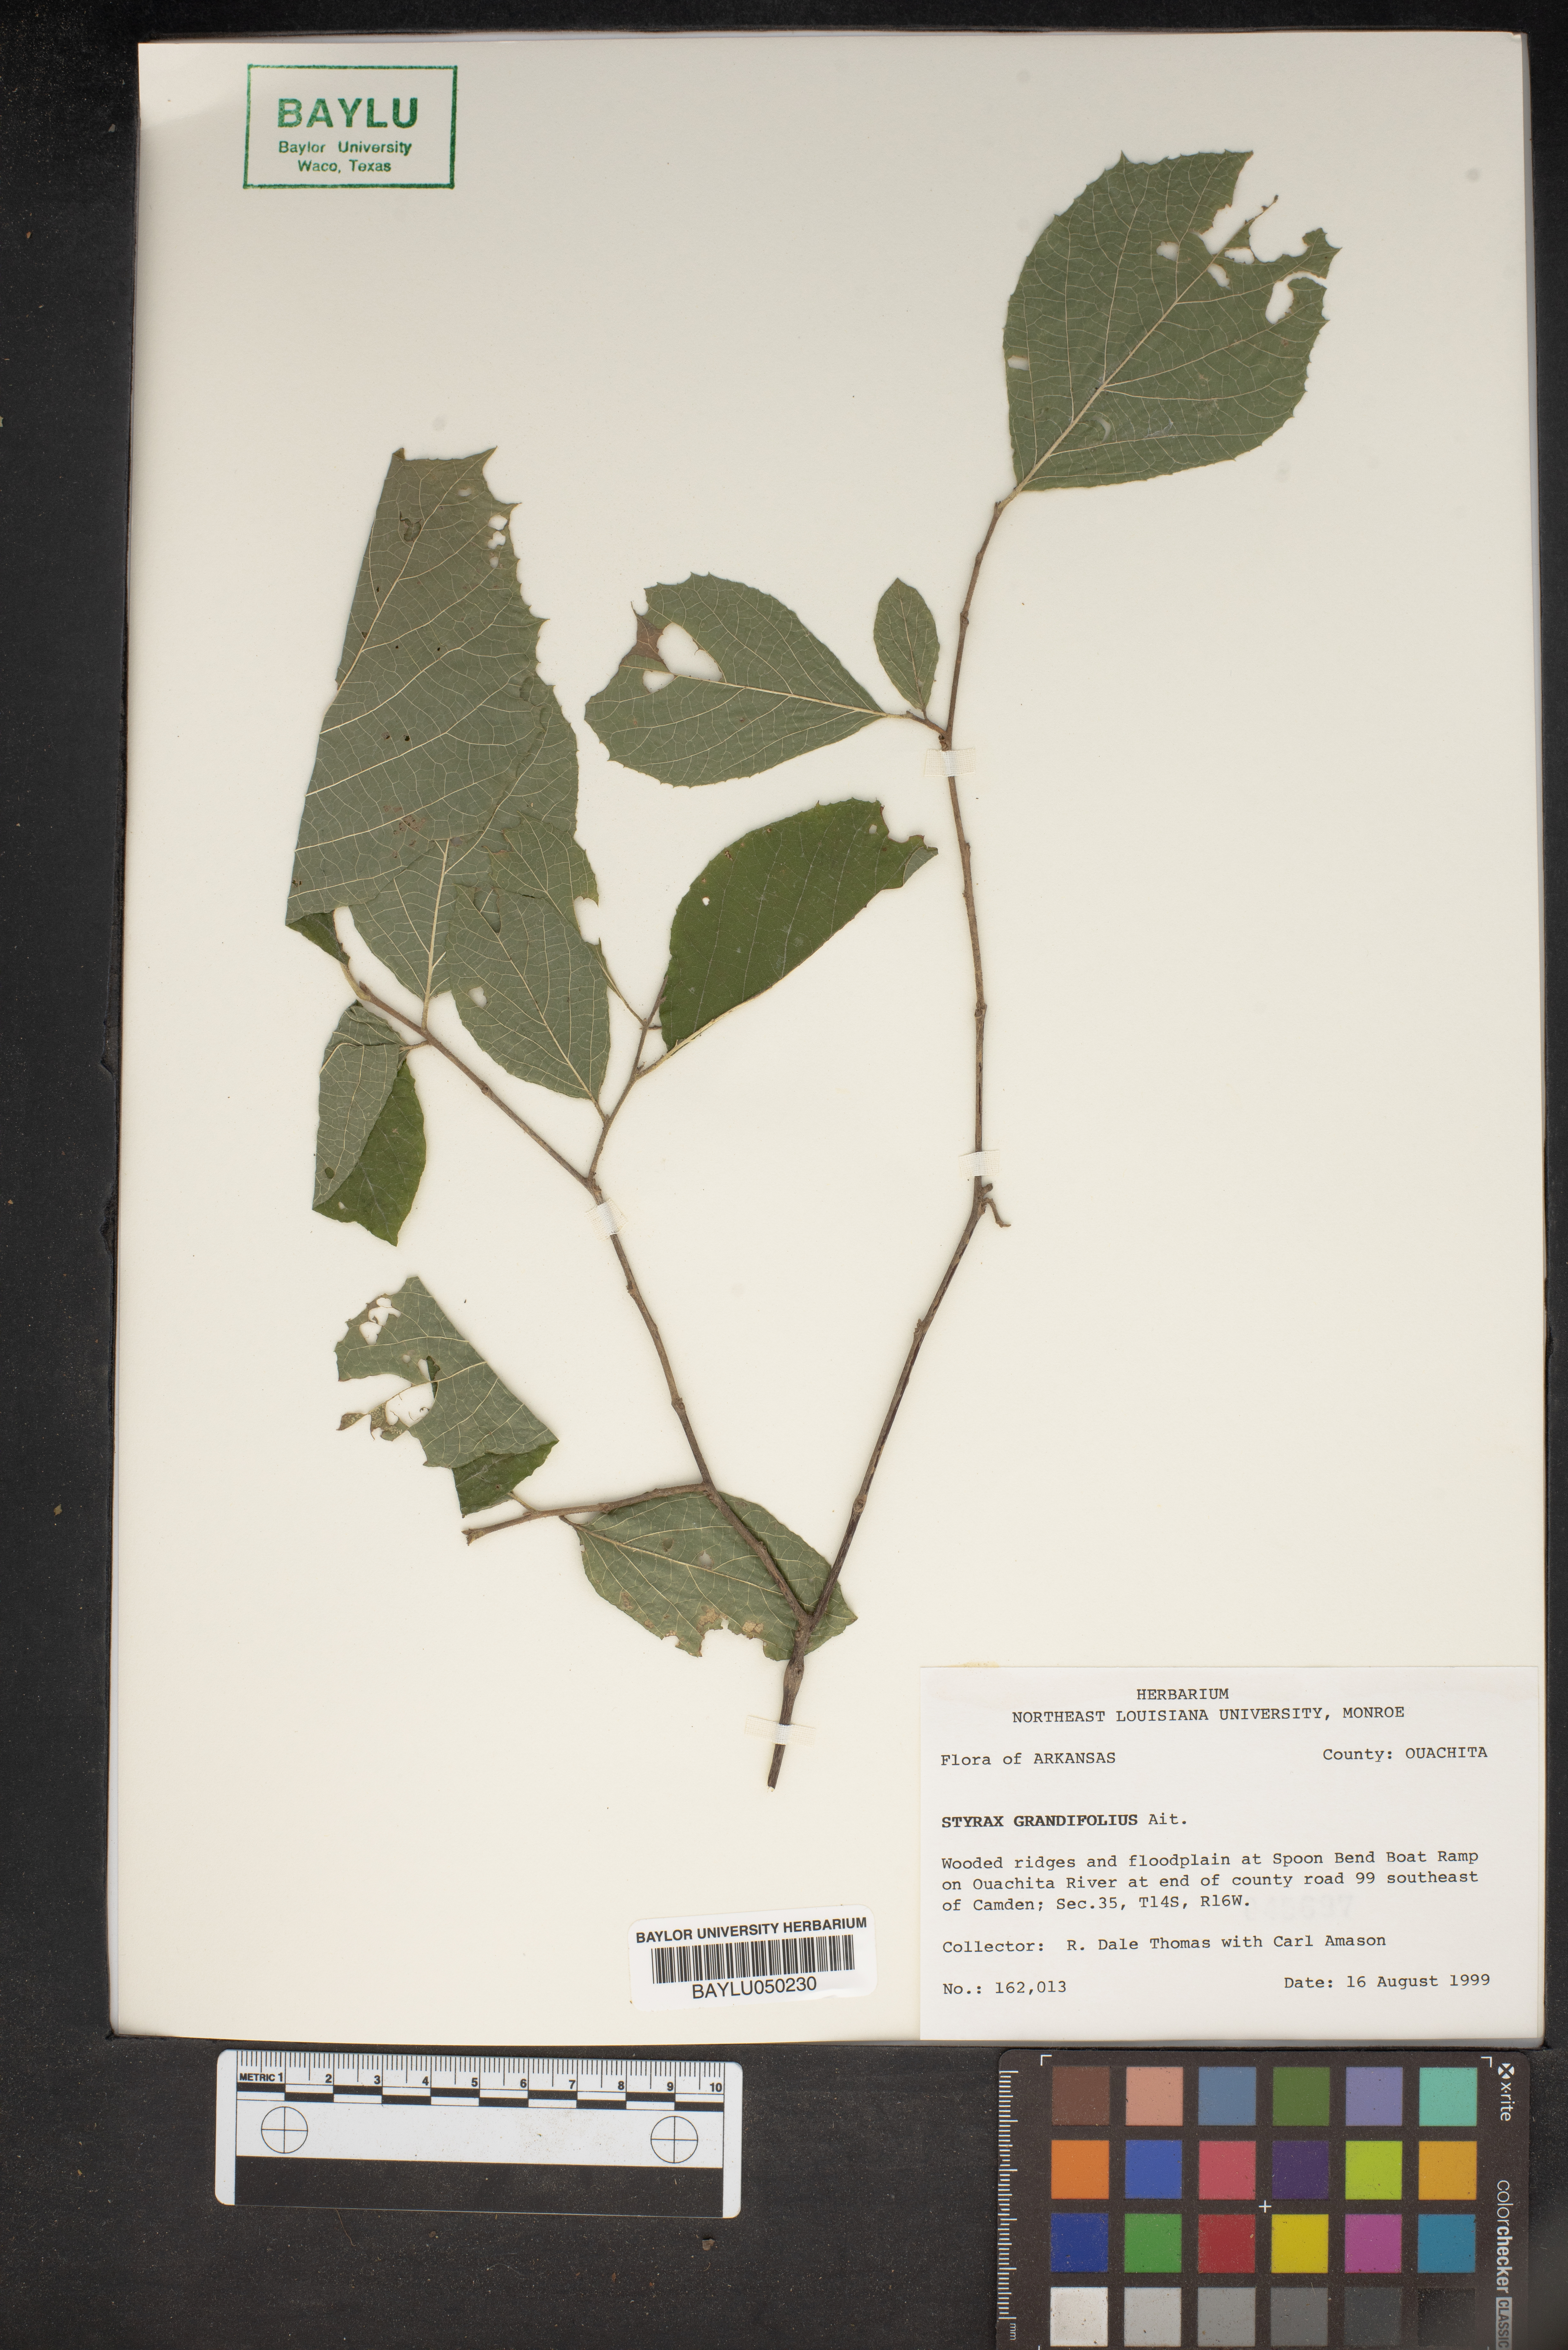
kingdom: Plantae
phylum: Tracheophyta
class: Magnoliopsida
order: Ericales
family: Styracaceae
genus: Styrax
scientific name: Styrax japonicus
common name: Japanese snowbell
